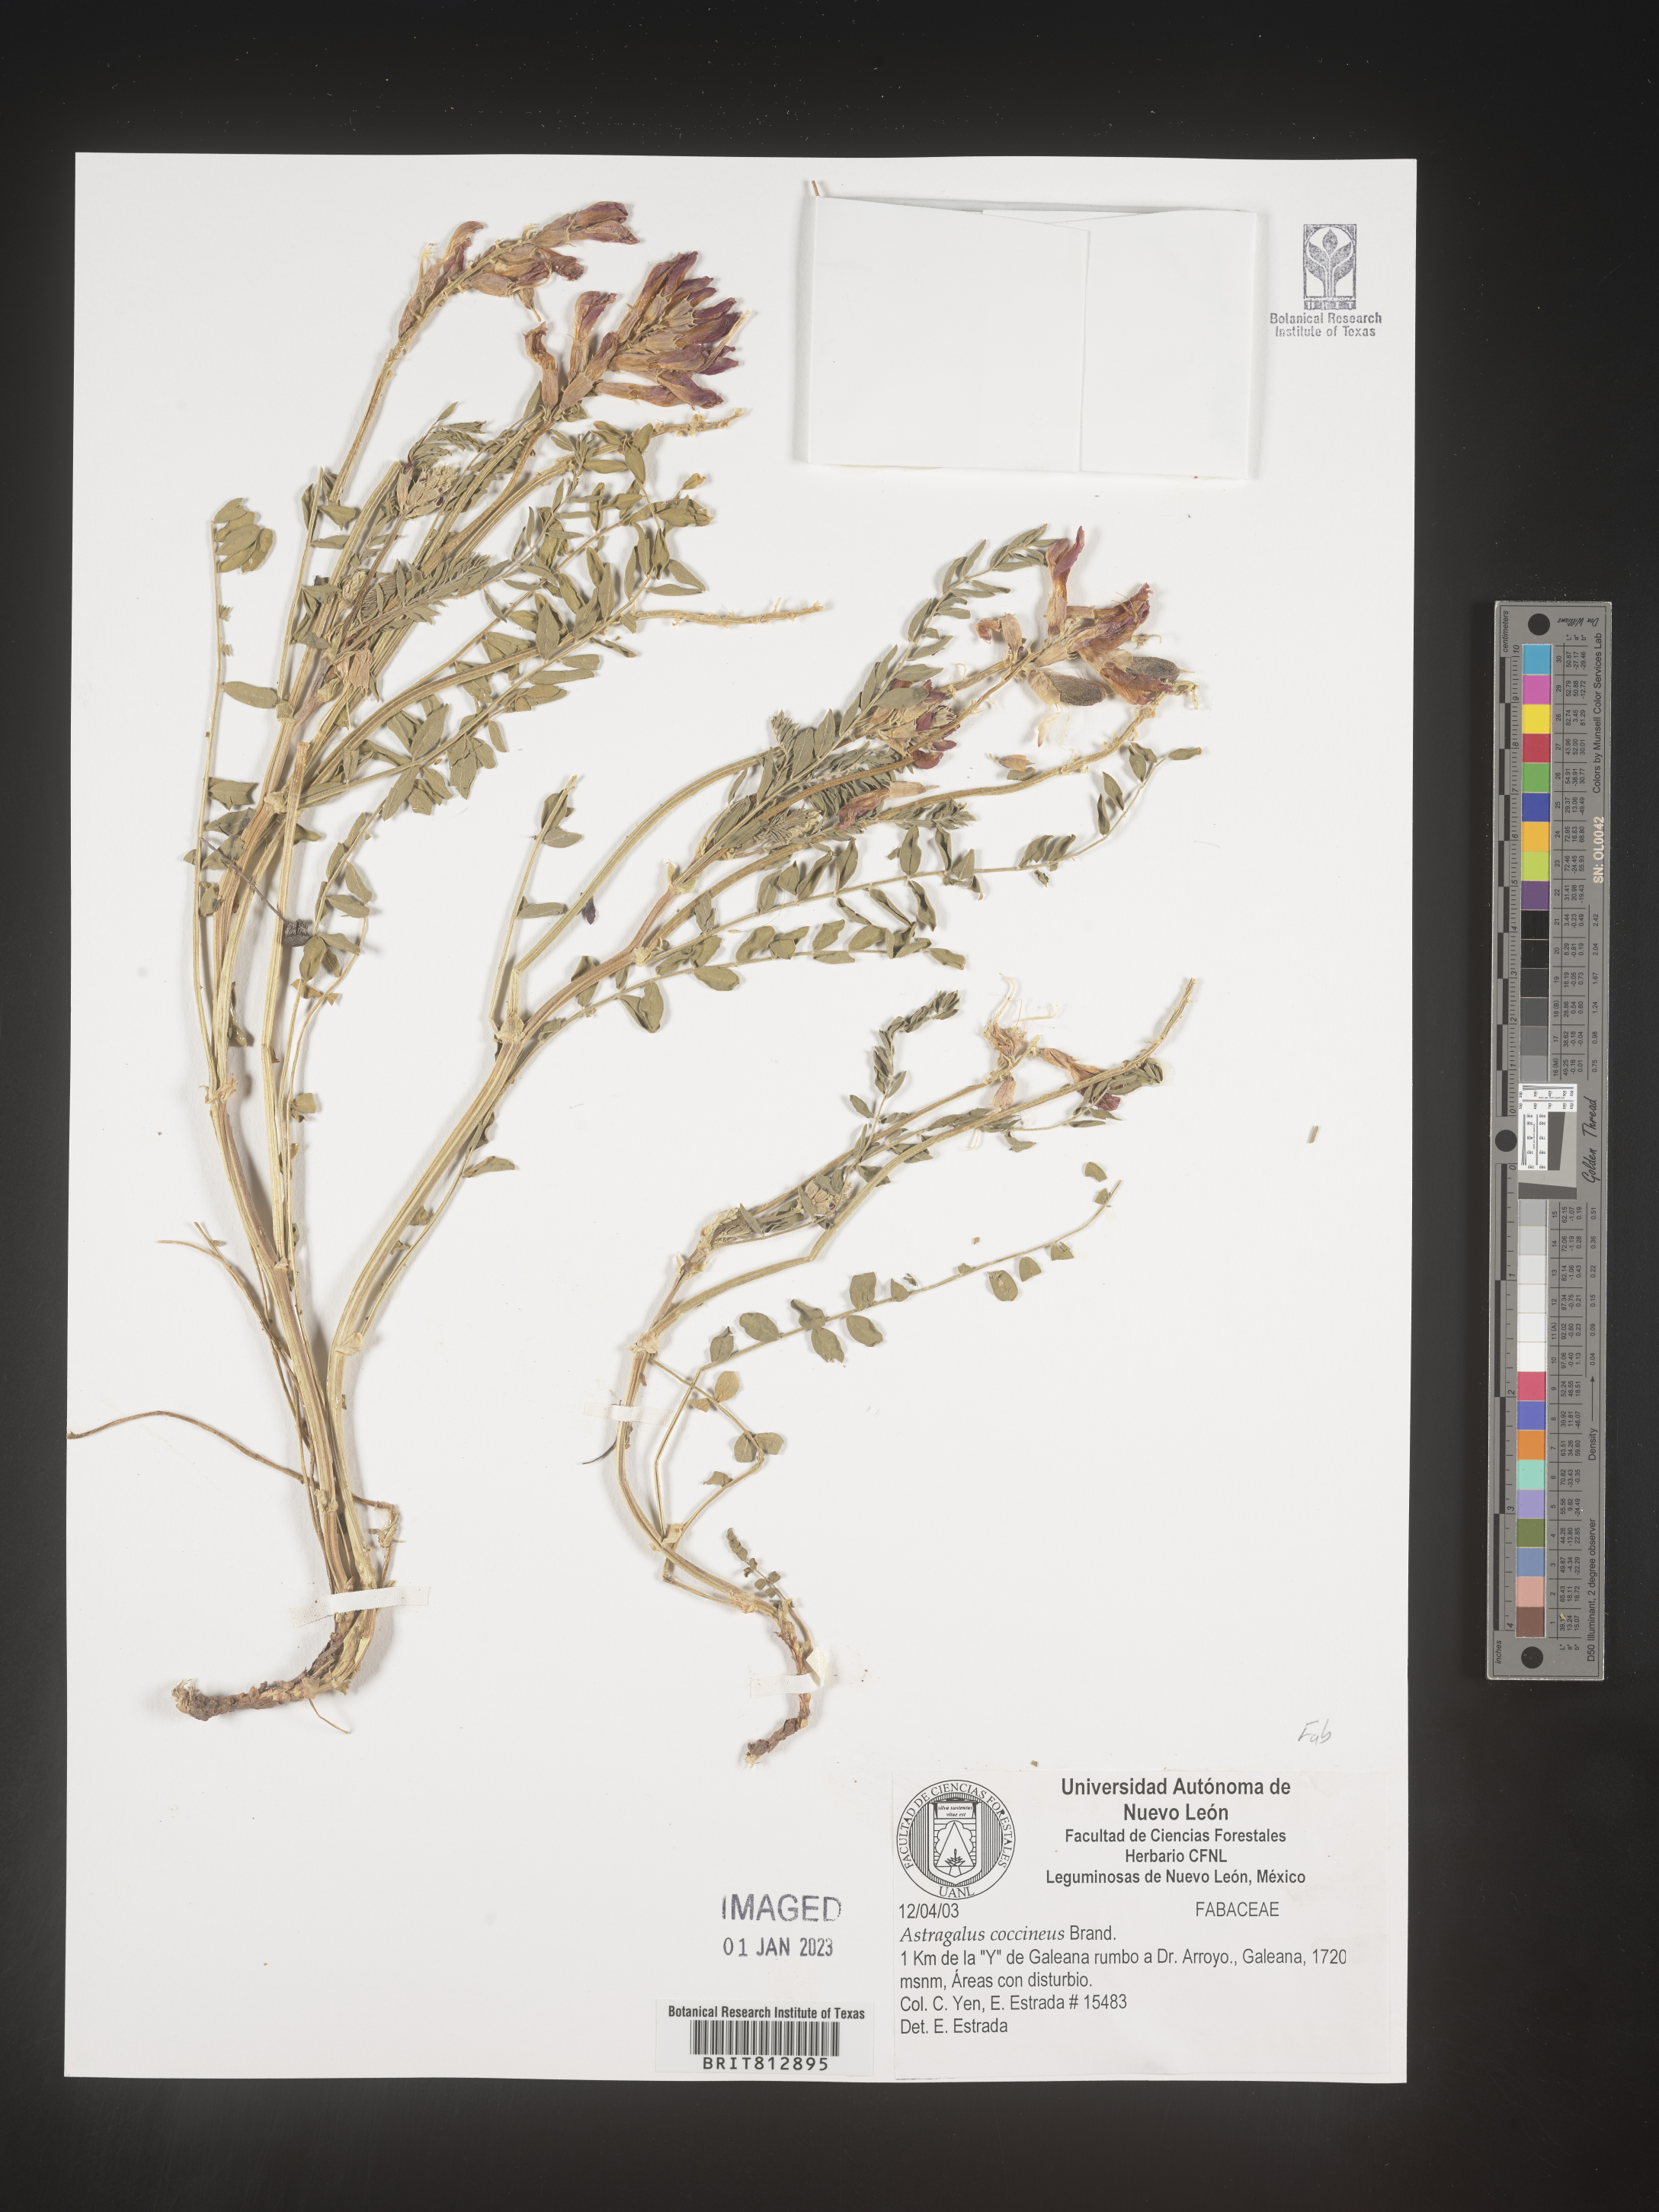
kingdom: Plantae
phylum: Tracheophyta
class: Magnoliopsida
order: Fabales
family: Fabaceae
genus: Astragalus
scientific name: Astragalus
